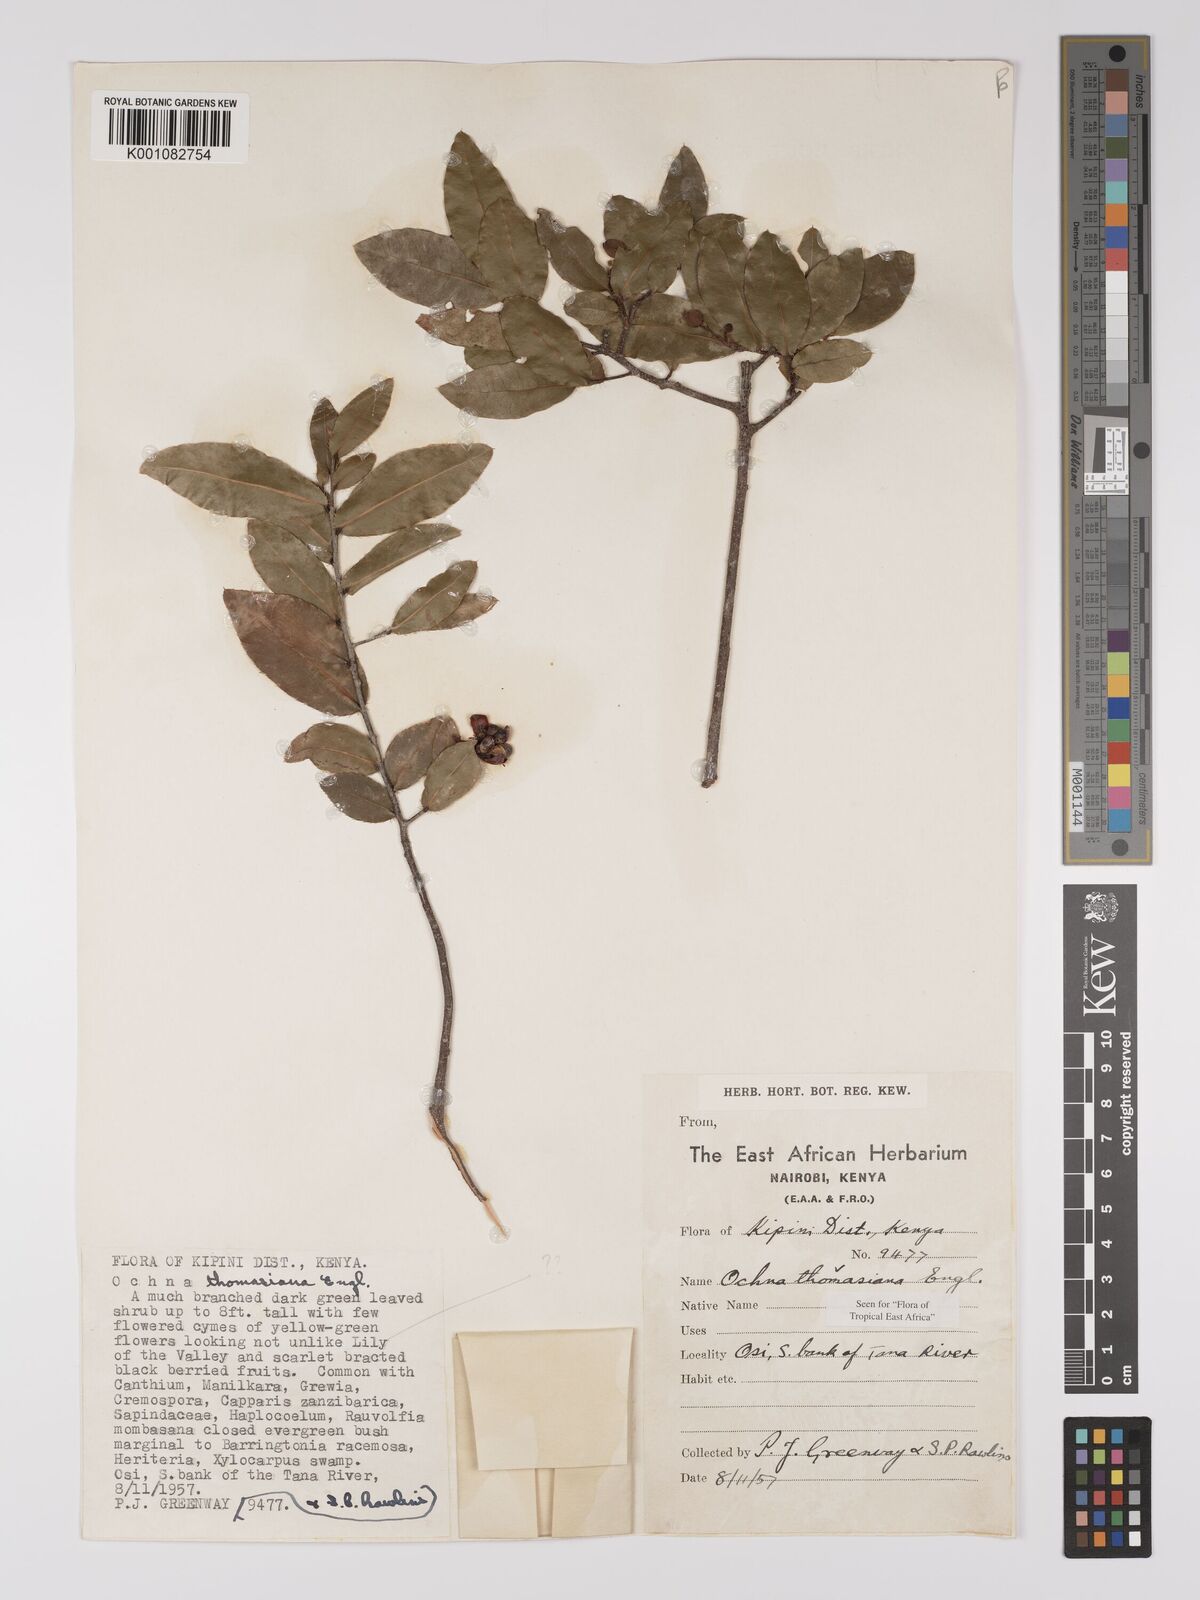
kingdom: Plantae
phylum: Tracheophyta
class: Magnoliopsida
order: Malpighiales
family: Ochnaceae
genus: Ochna
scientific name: Ochna thomasiana
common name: Thomas' bird's-eye bush
